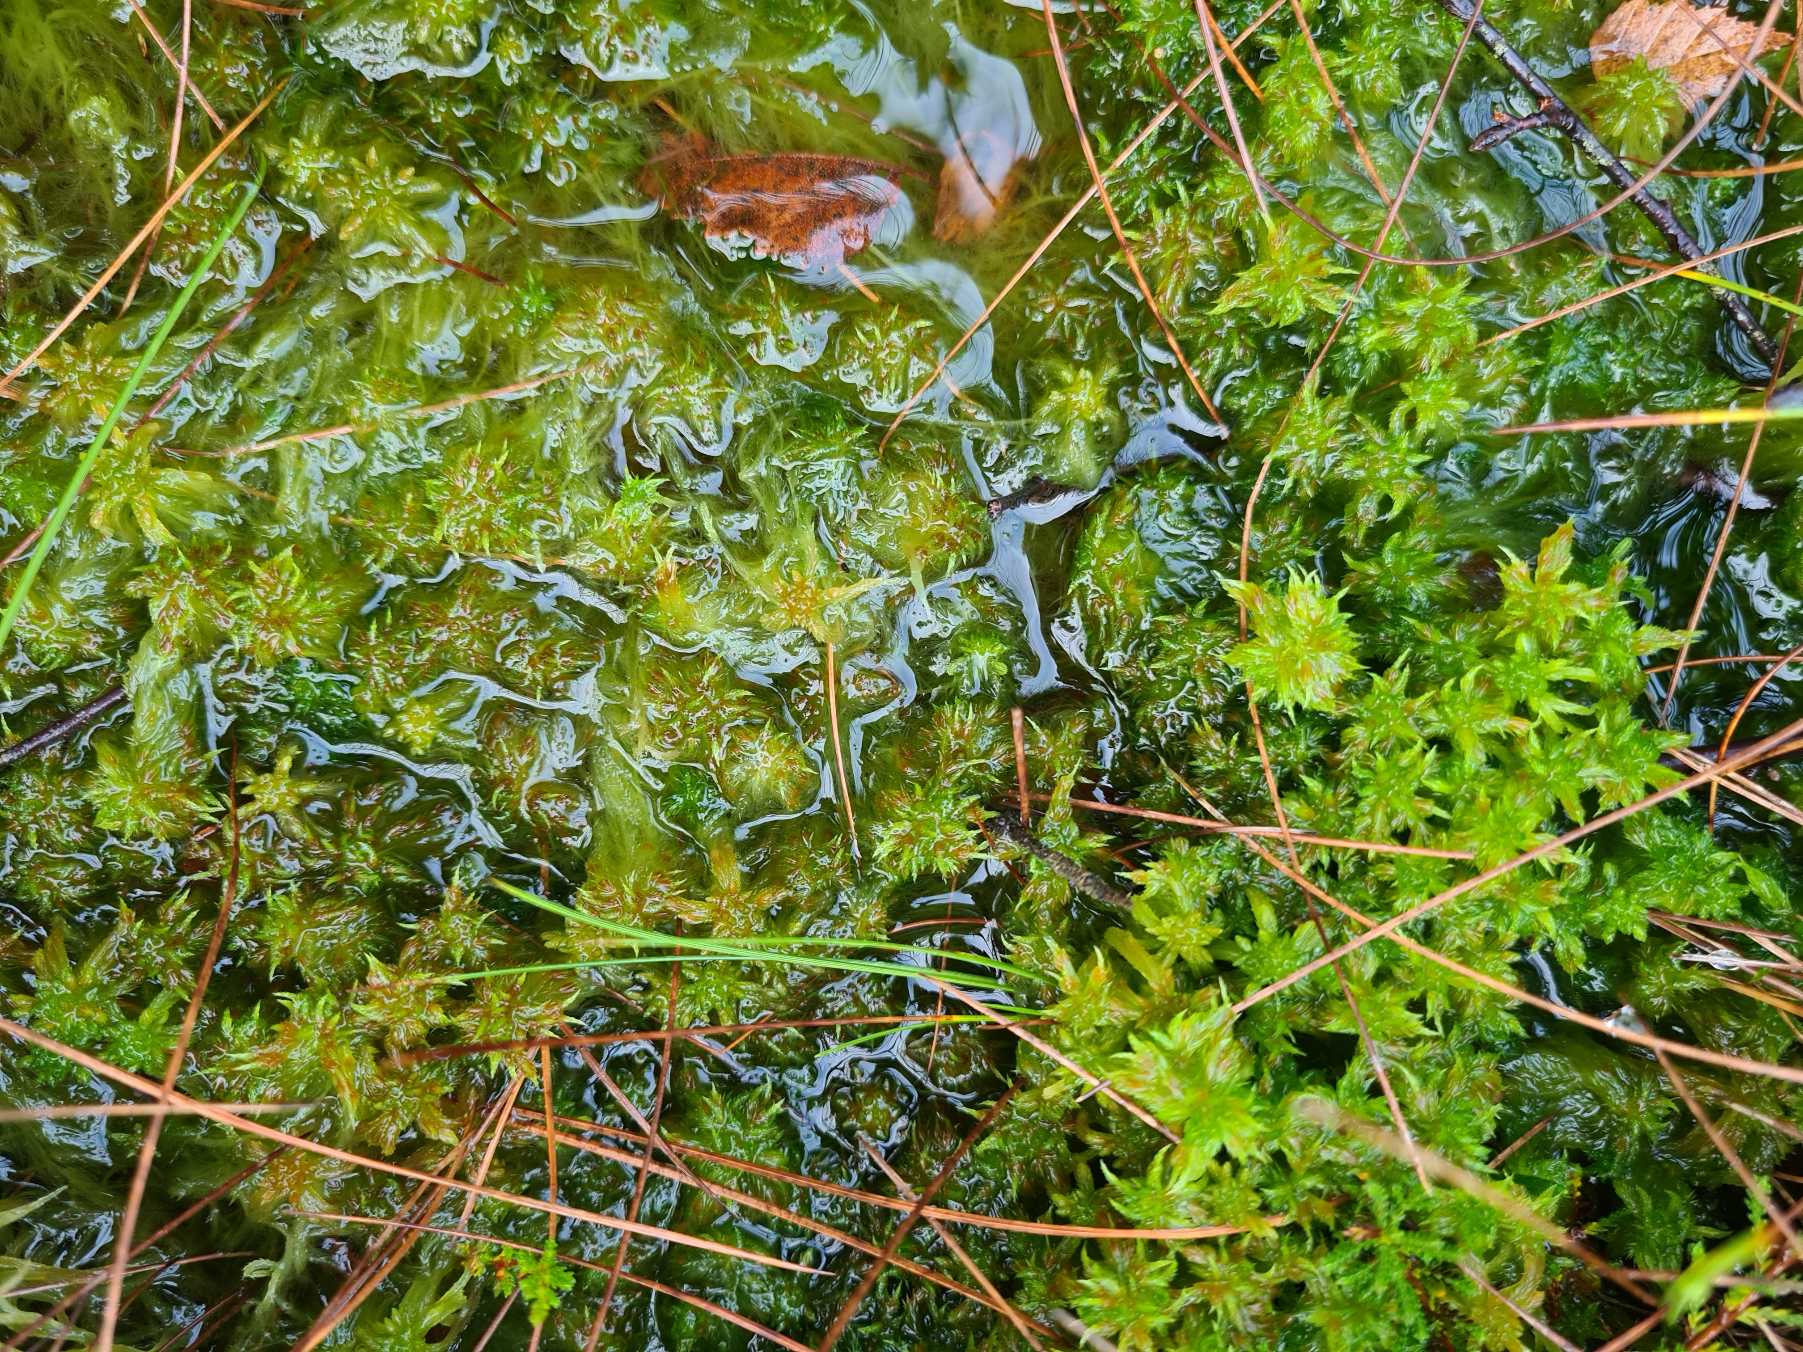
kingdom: Plantae
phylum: Bryophyta
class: Sphagnopsida
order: Sphagnales
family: Sphagnaceae
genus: Sphagnum
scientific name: Sphagnum cuspidatum
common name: Pjusket tørvemos
